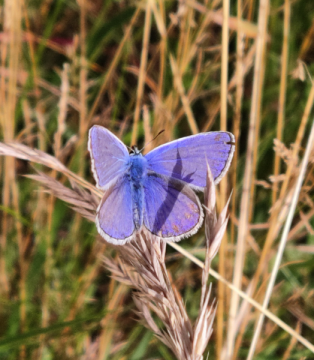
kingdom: Animalia
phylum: Arthropoda
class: Insecta
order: Lepidoptera
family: Lycaenidae
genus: Polyommatus
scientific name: Polyommatus icarus
